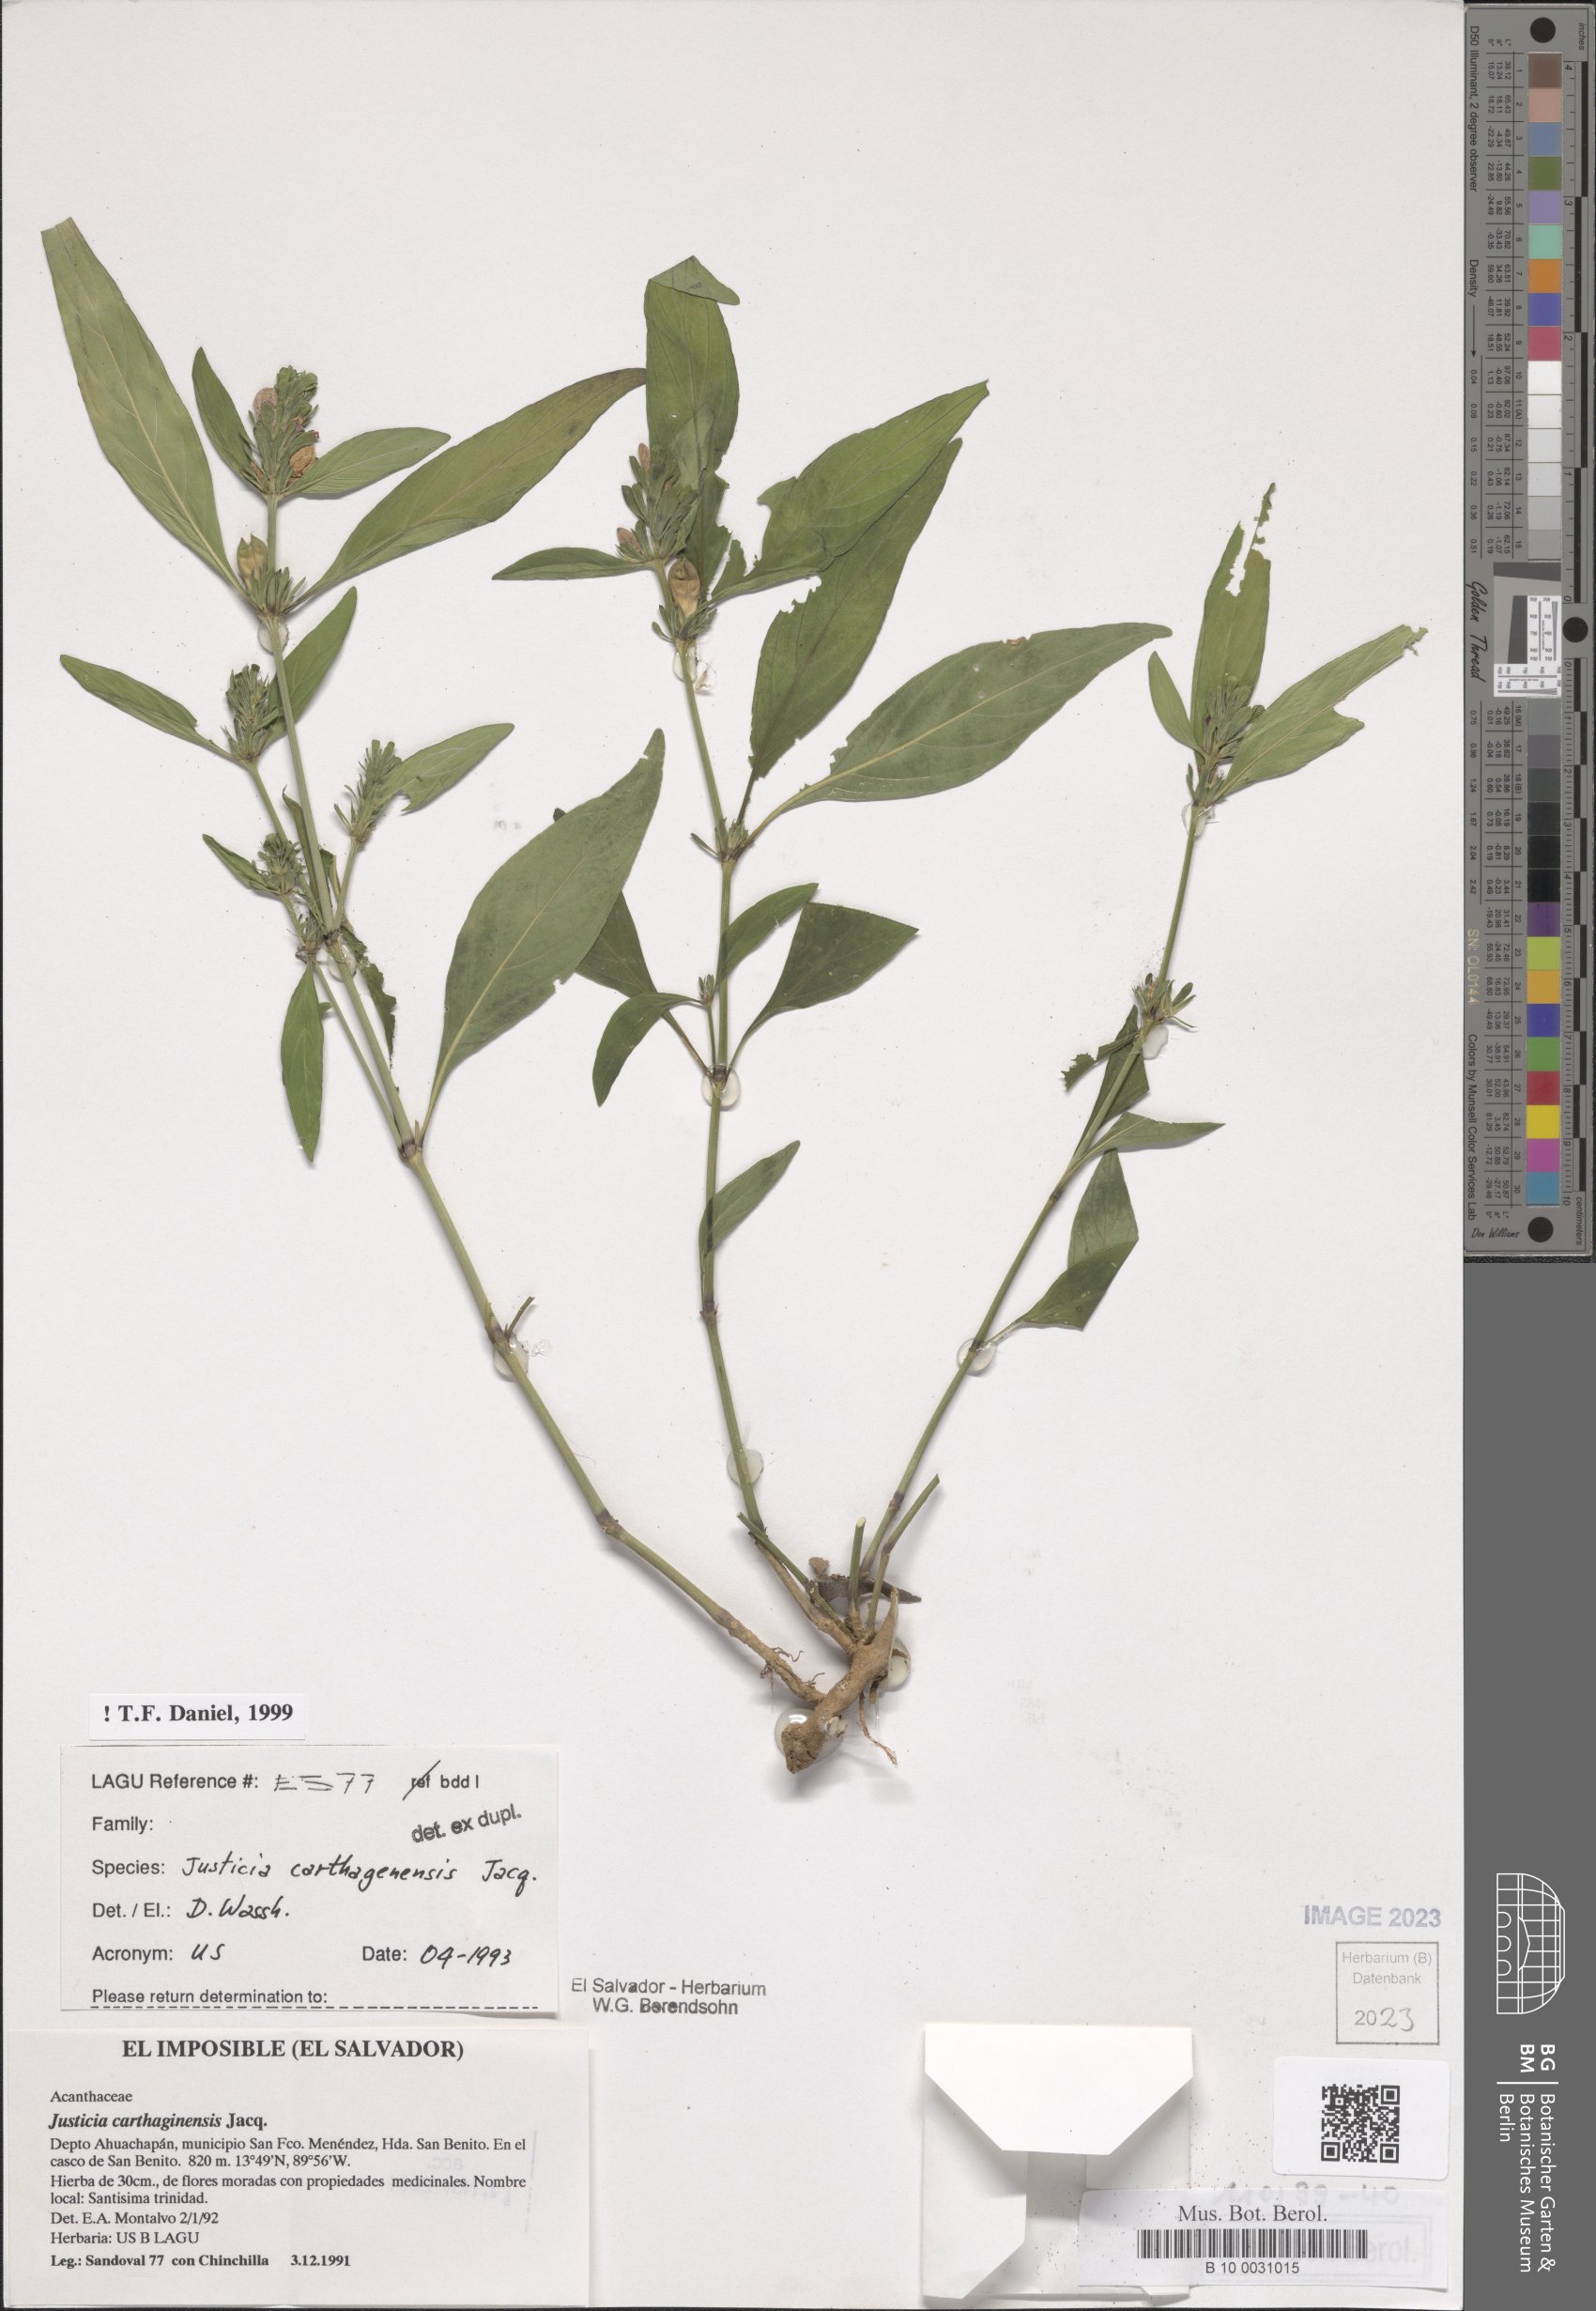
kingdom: Plantae
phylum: Tracheophyta
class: Magnoliopsida
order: Lamiales
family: Acanthaceae
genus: Justicia
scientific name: Justicia carthagenensis
